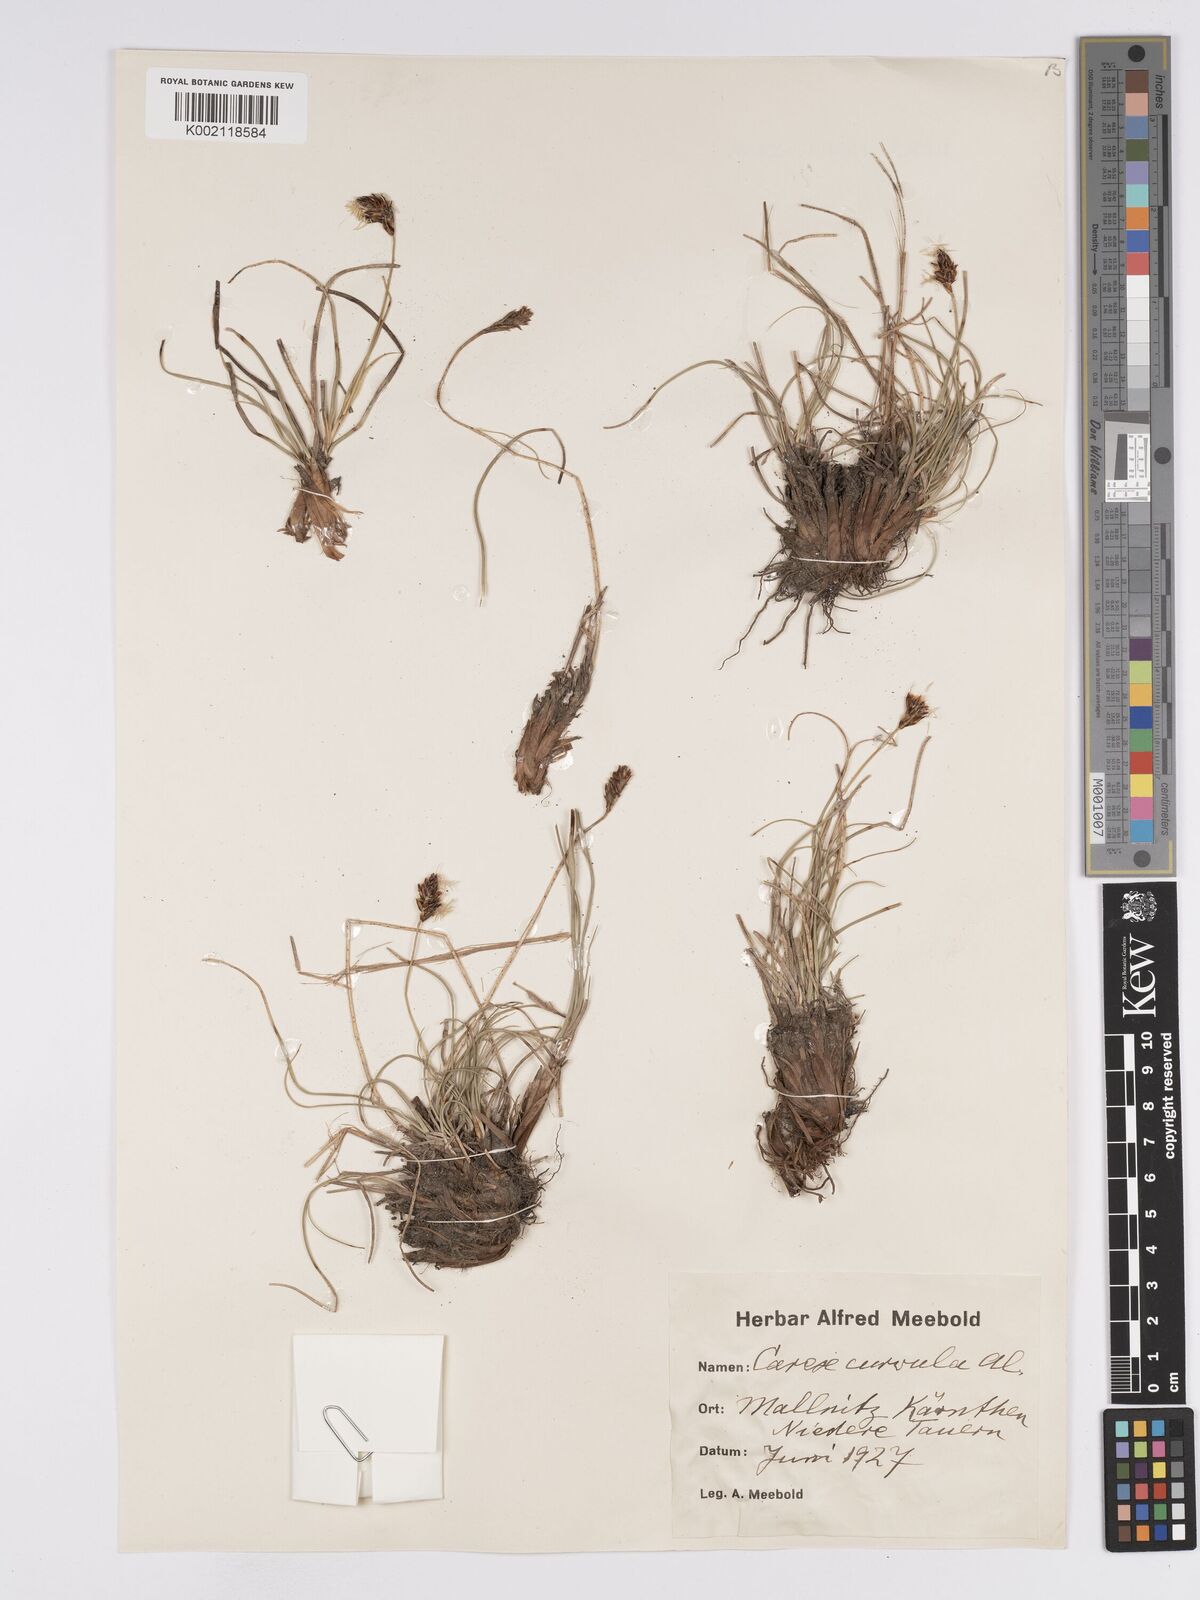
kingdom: Plantae
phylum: Tracheophyta
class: Liliopsida
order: Poales
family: Cyperaceae
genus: Carex
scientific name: Carex curvula
